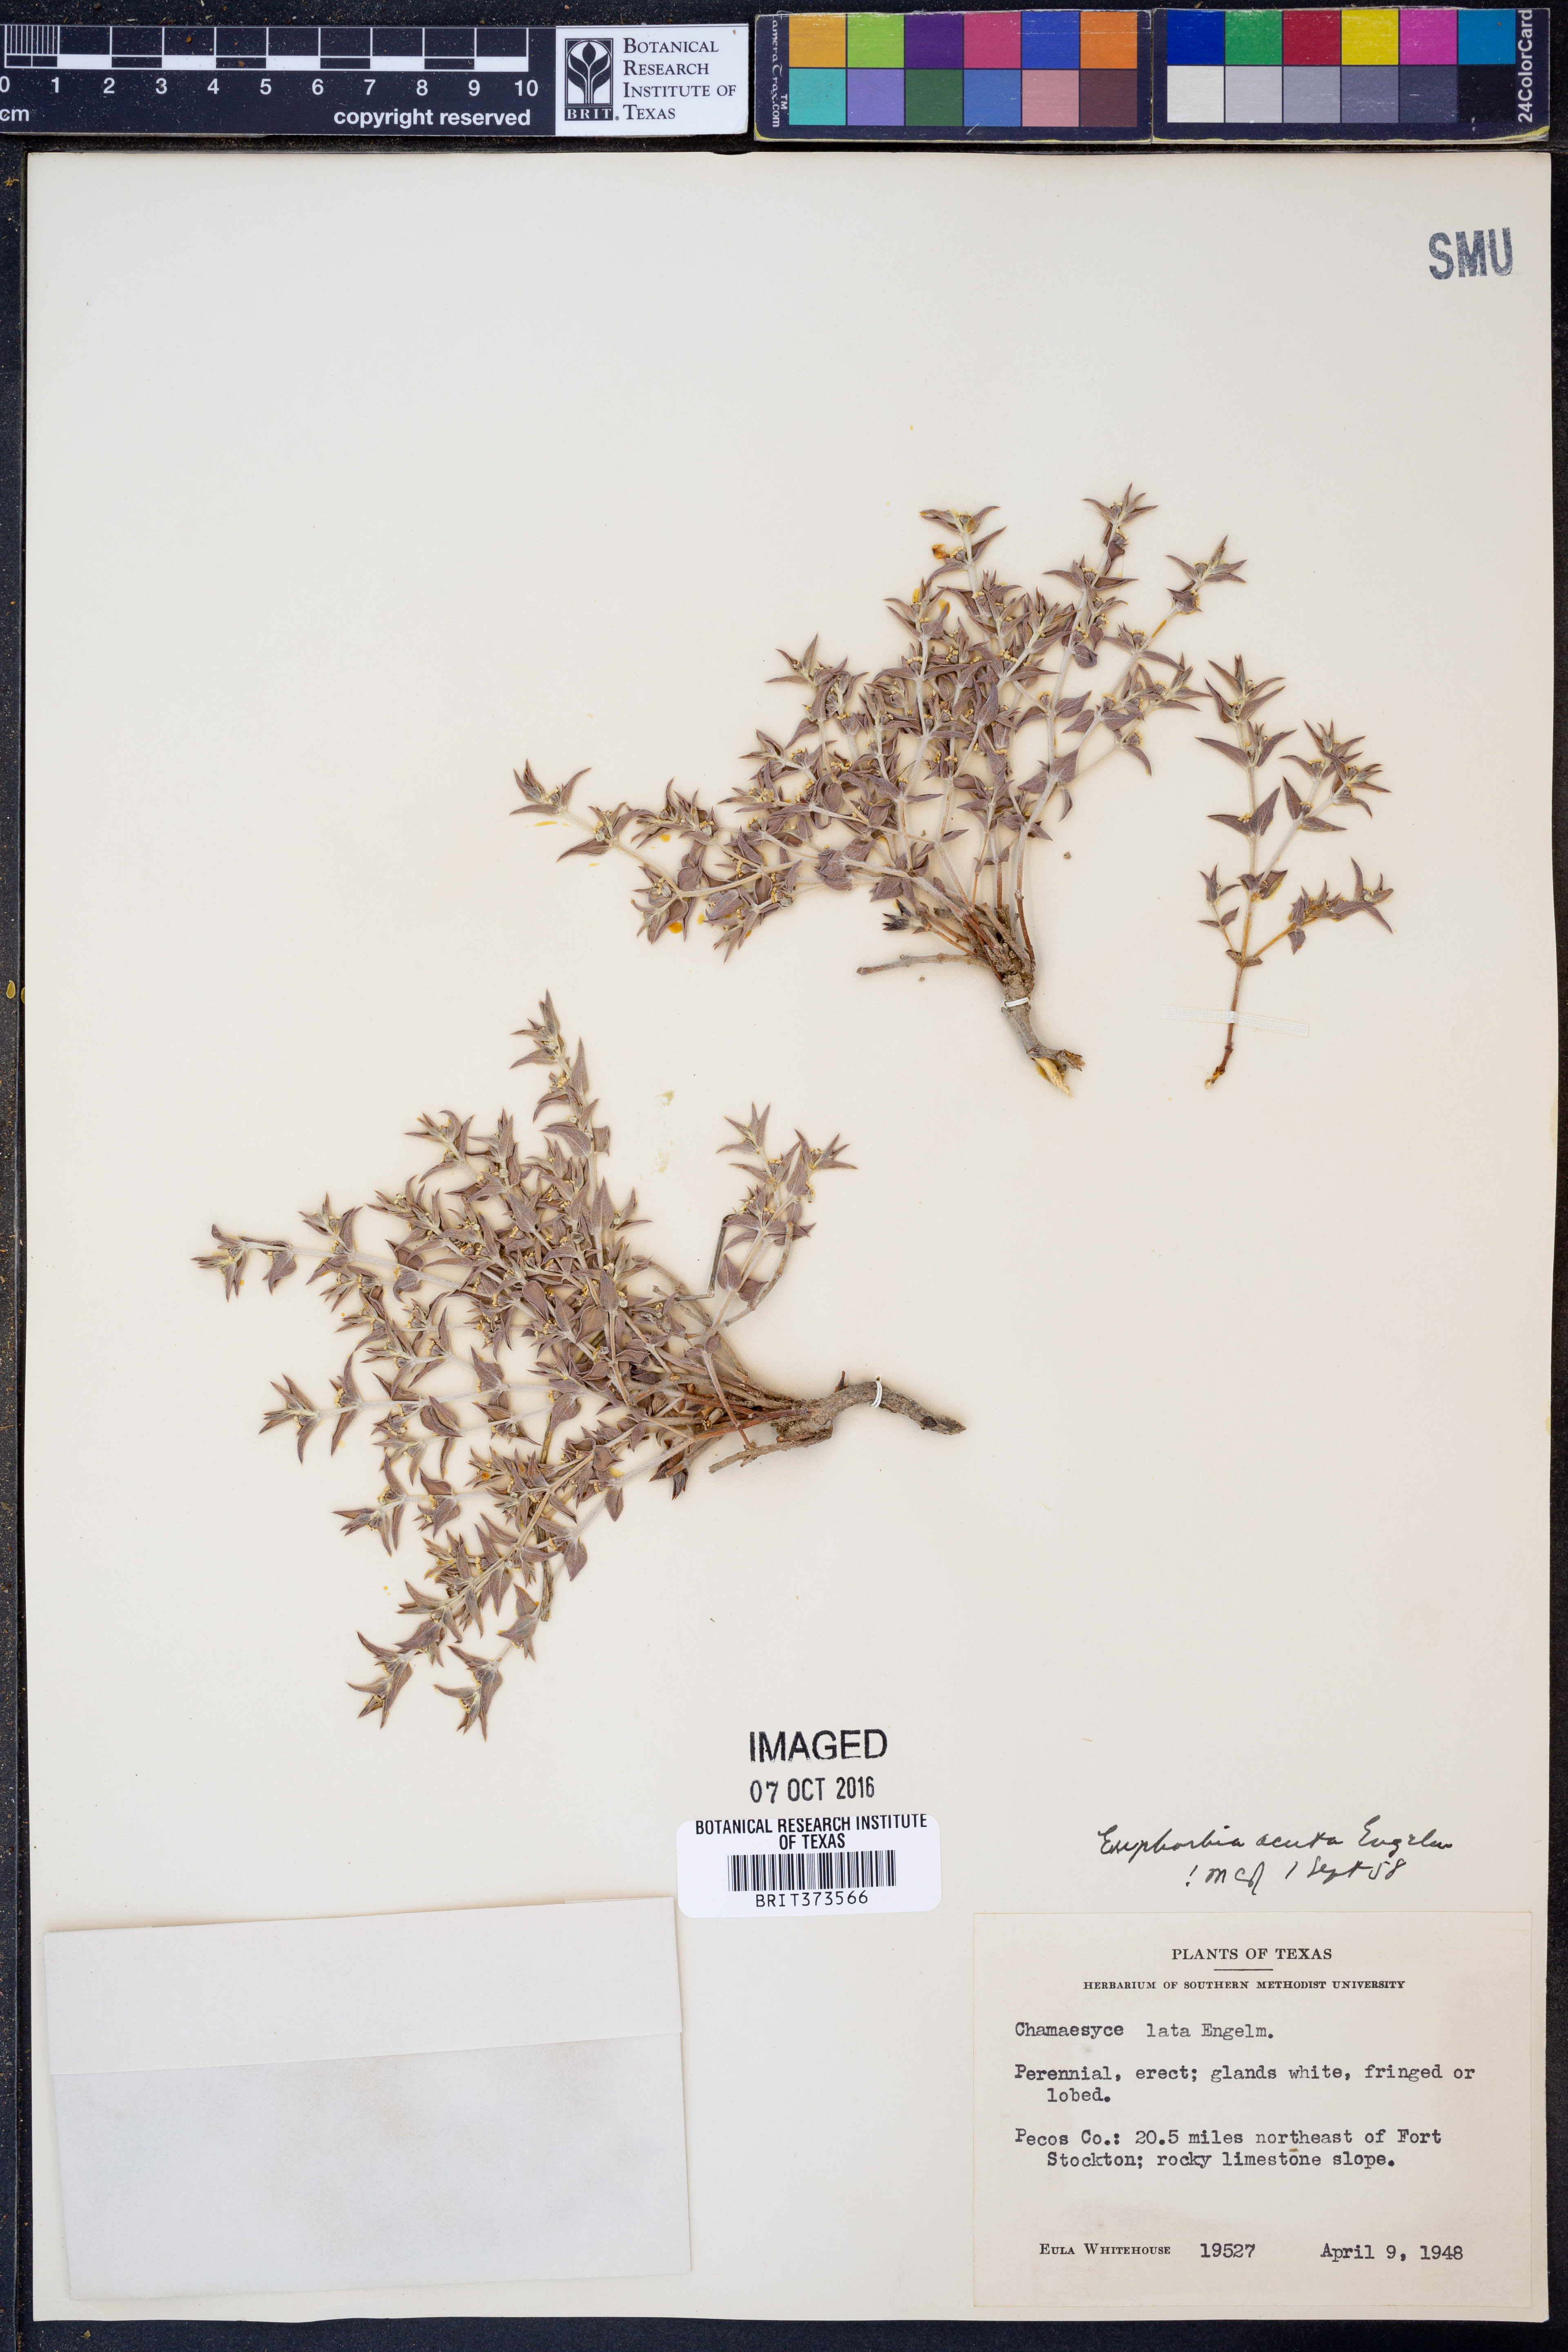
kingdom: Plantae
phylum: Tracheophyta
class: Magnoliopsida
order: Malpighiales
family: Euphorbiaceae
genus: Euphorbia
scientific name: Euphorbia acuta
